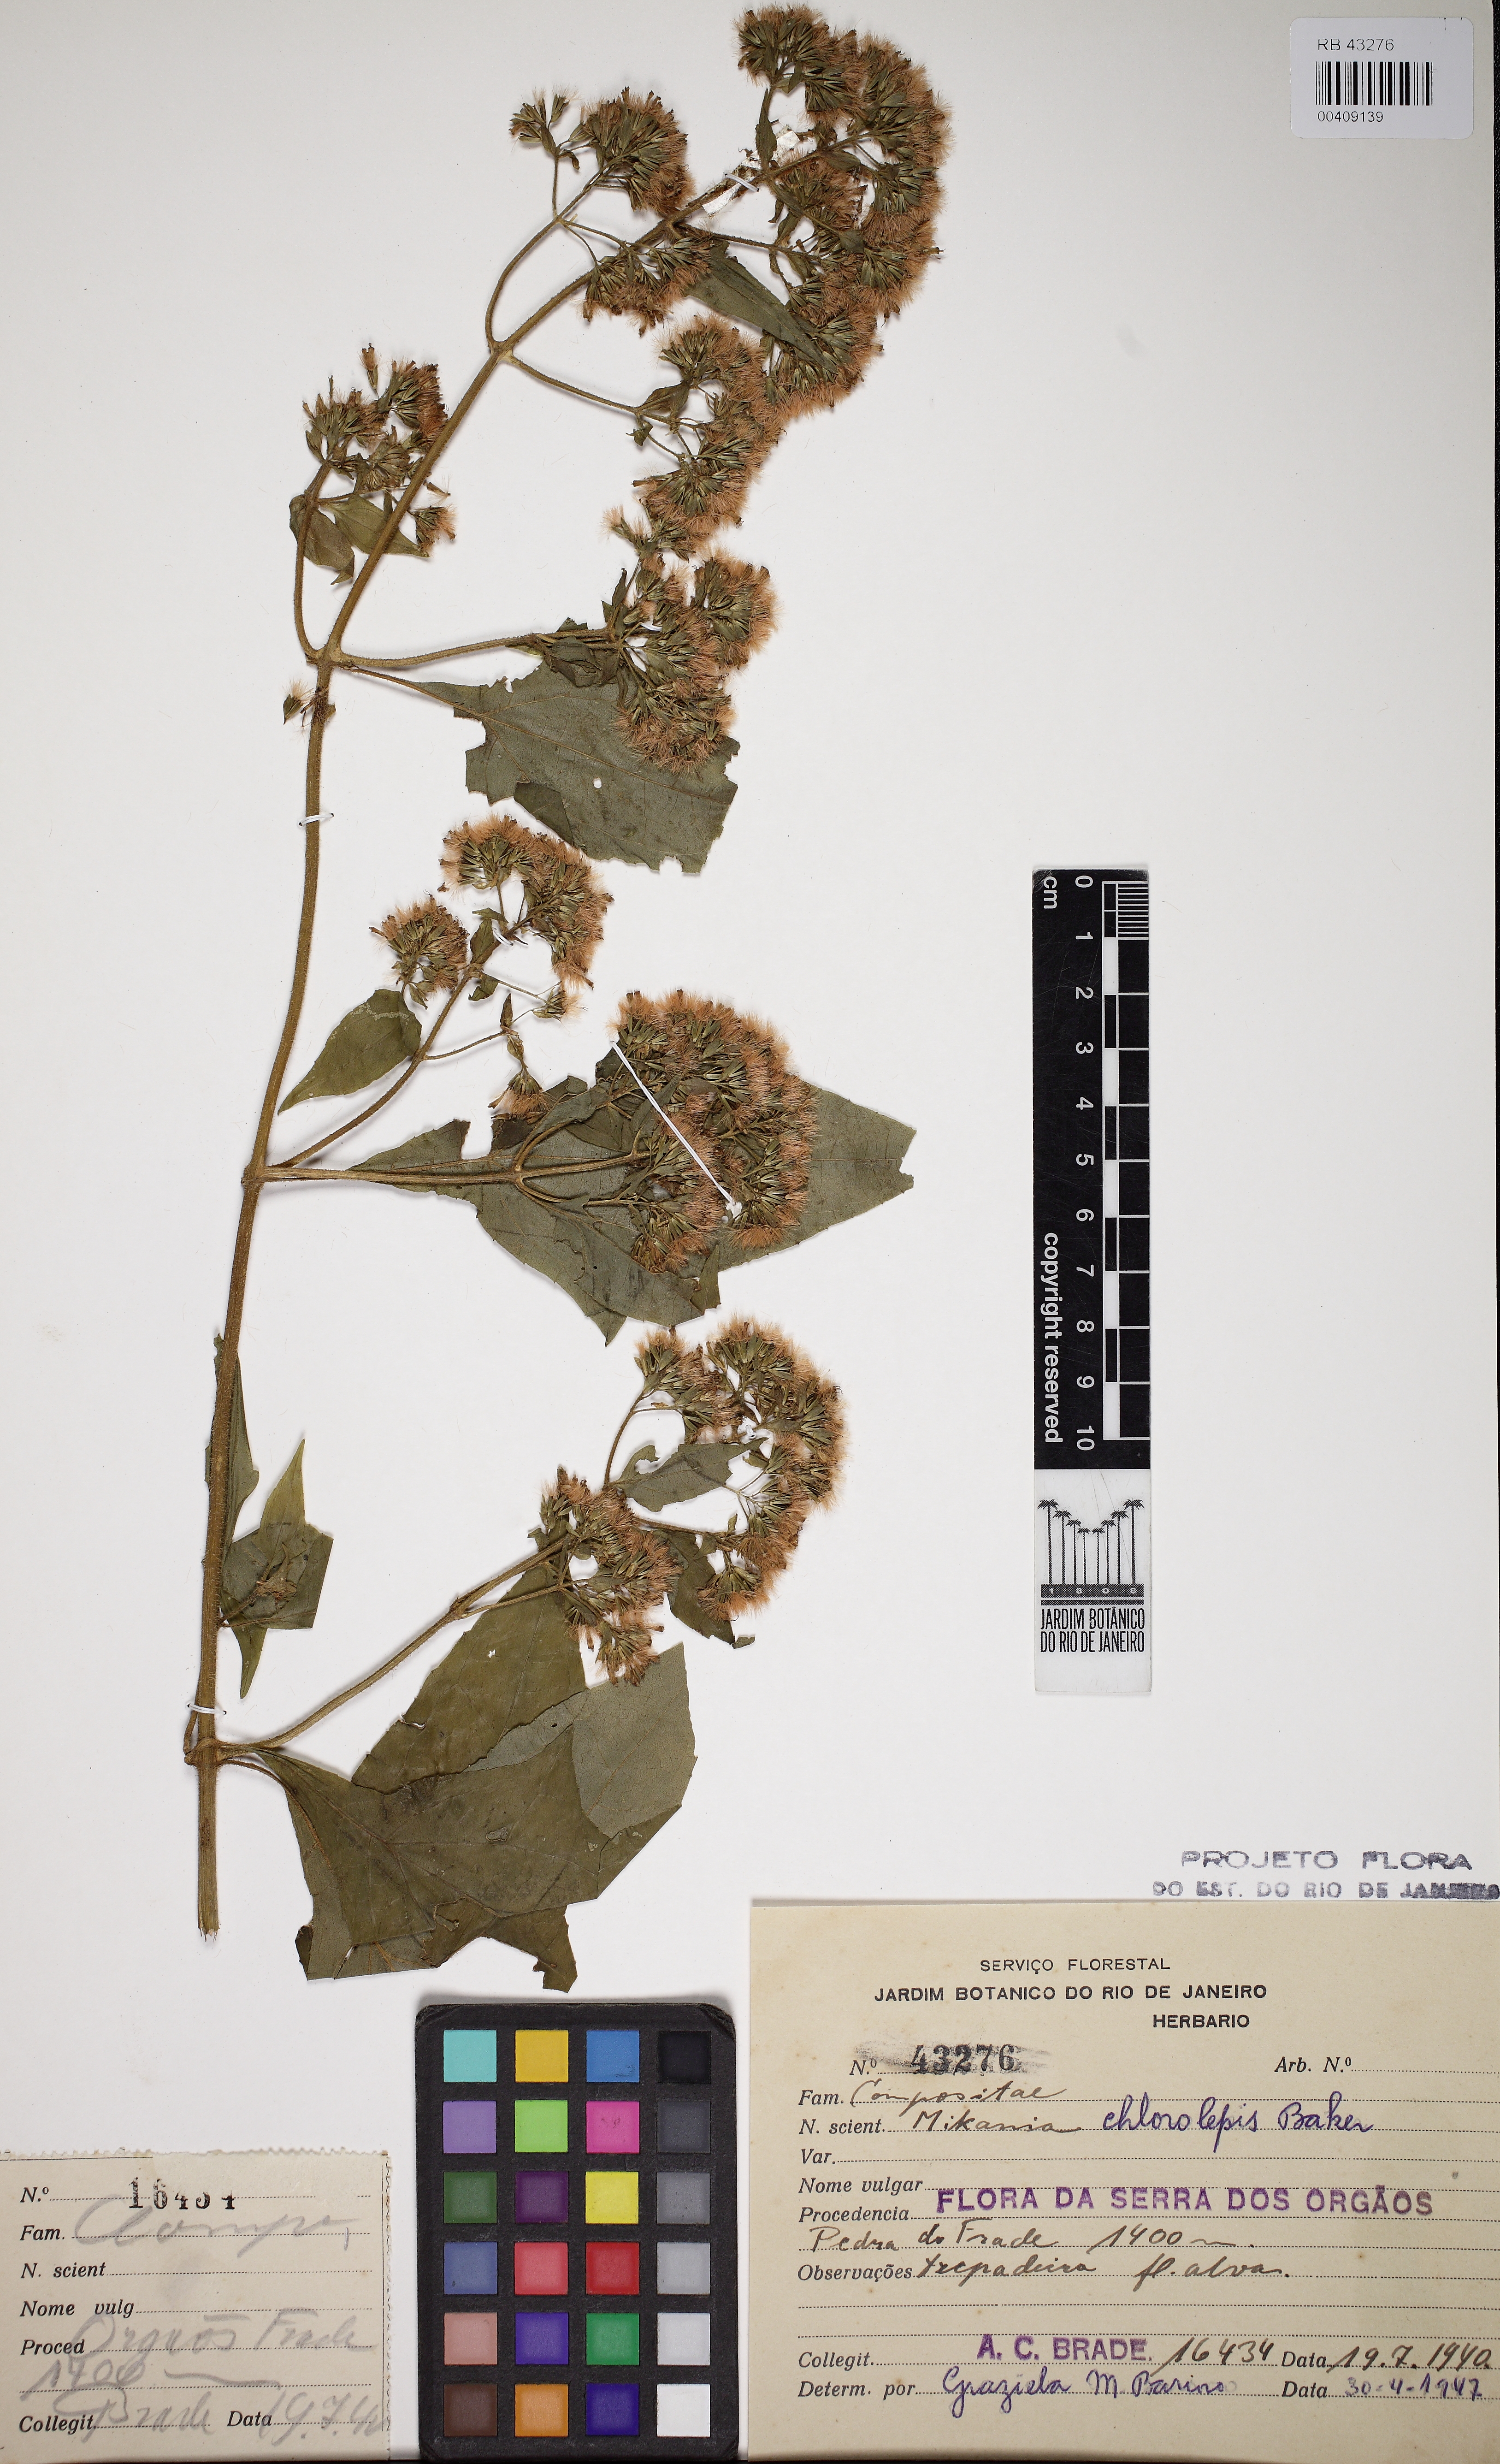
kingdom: Plantae
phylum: Tracheophyta
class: Magnoliopsida
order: Asterales
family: Asteraceae
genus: Mikania
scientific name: Mikania chlorolepis
